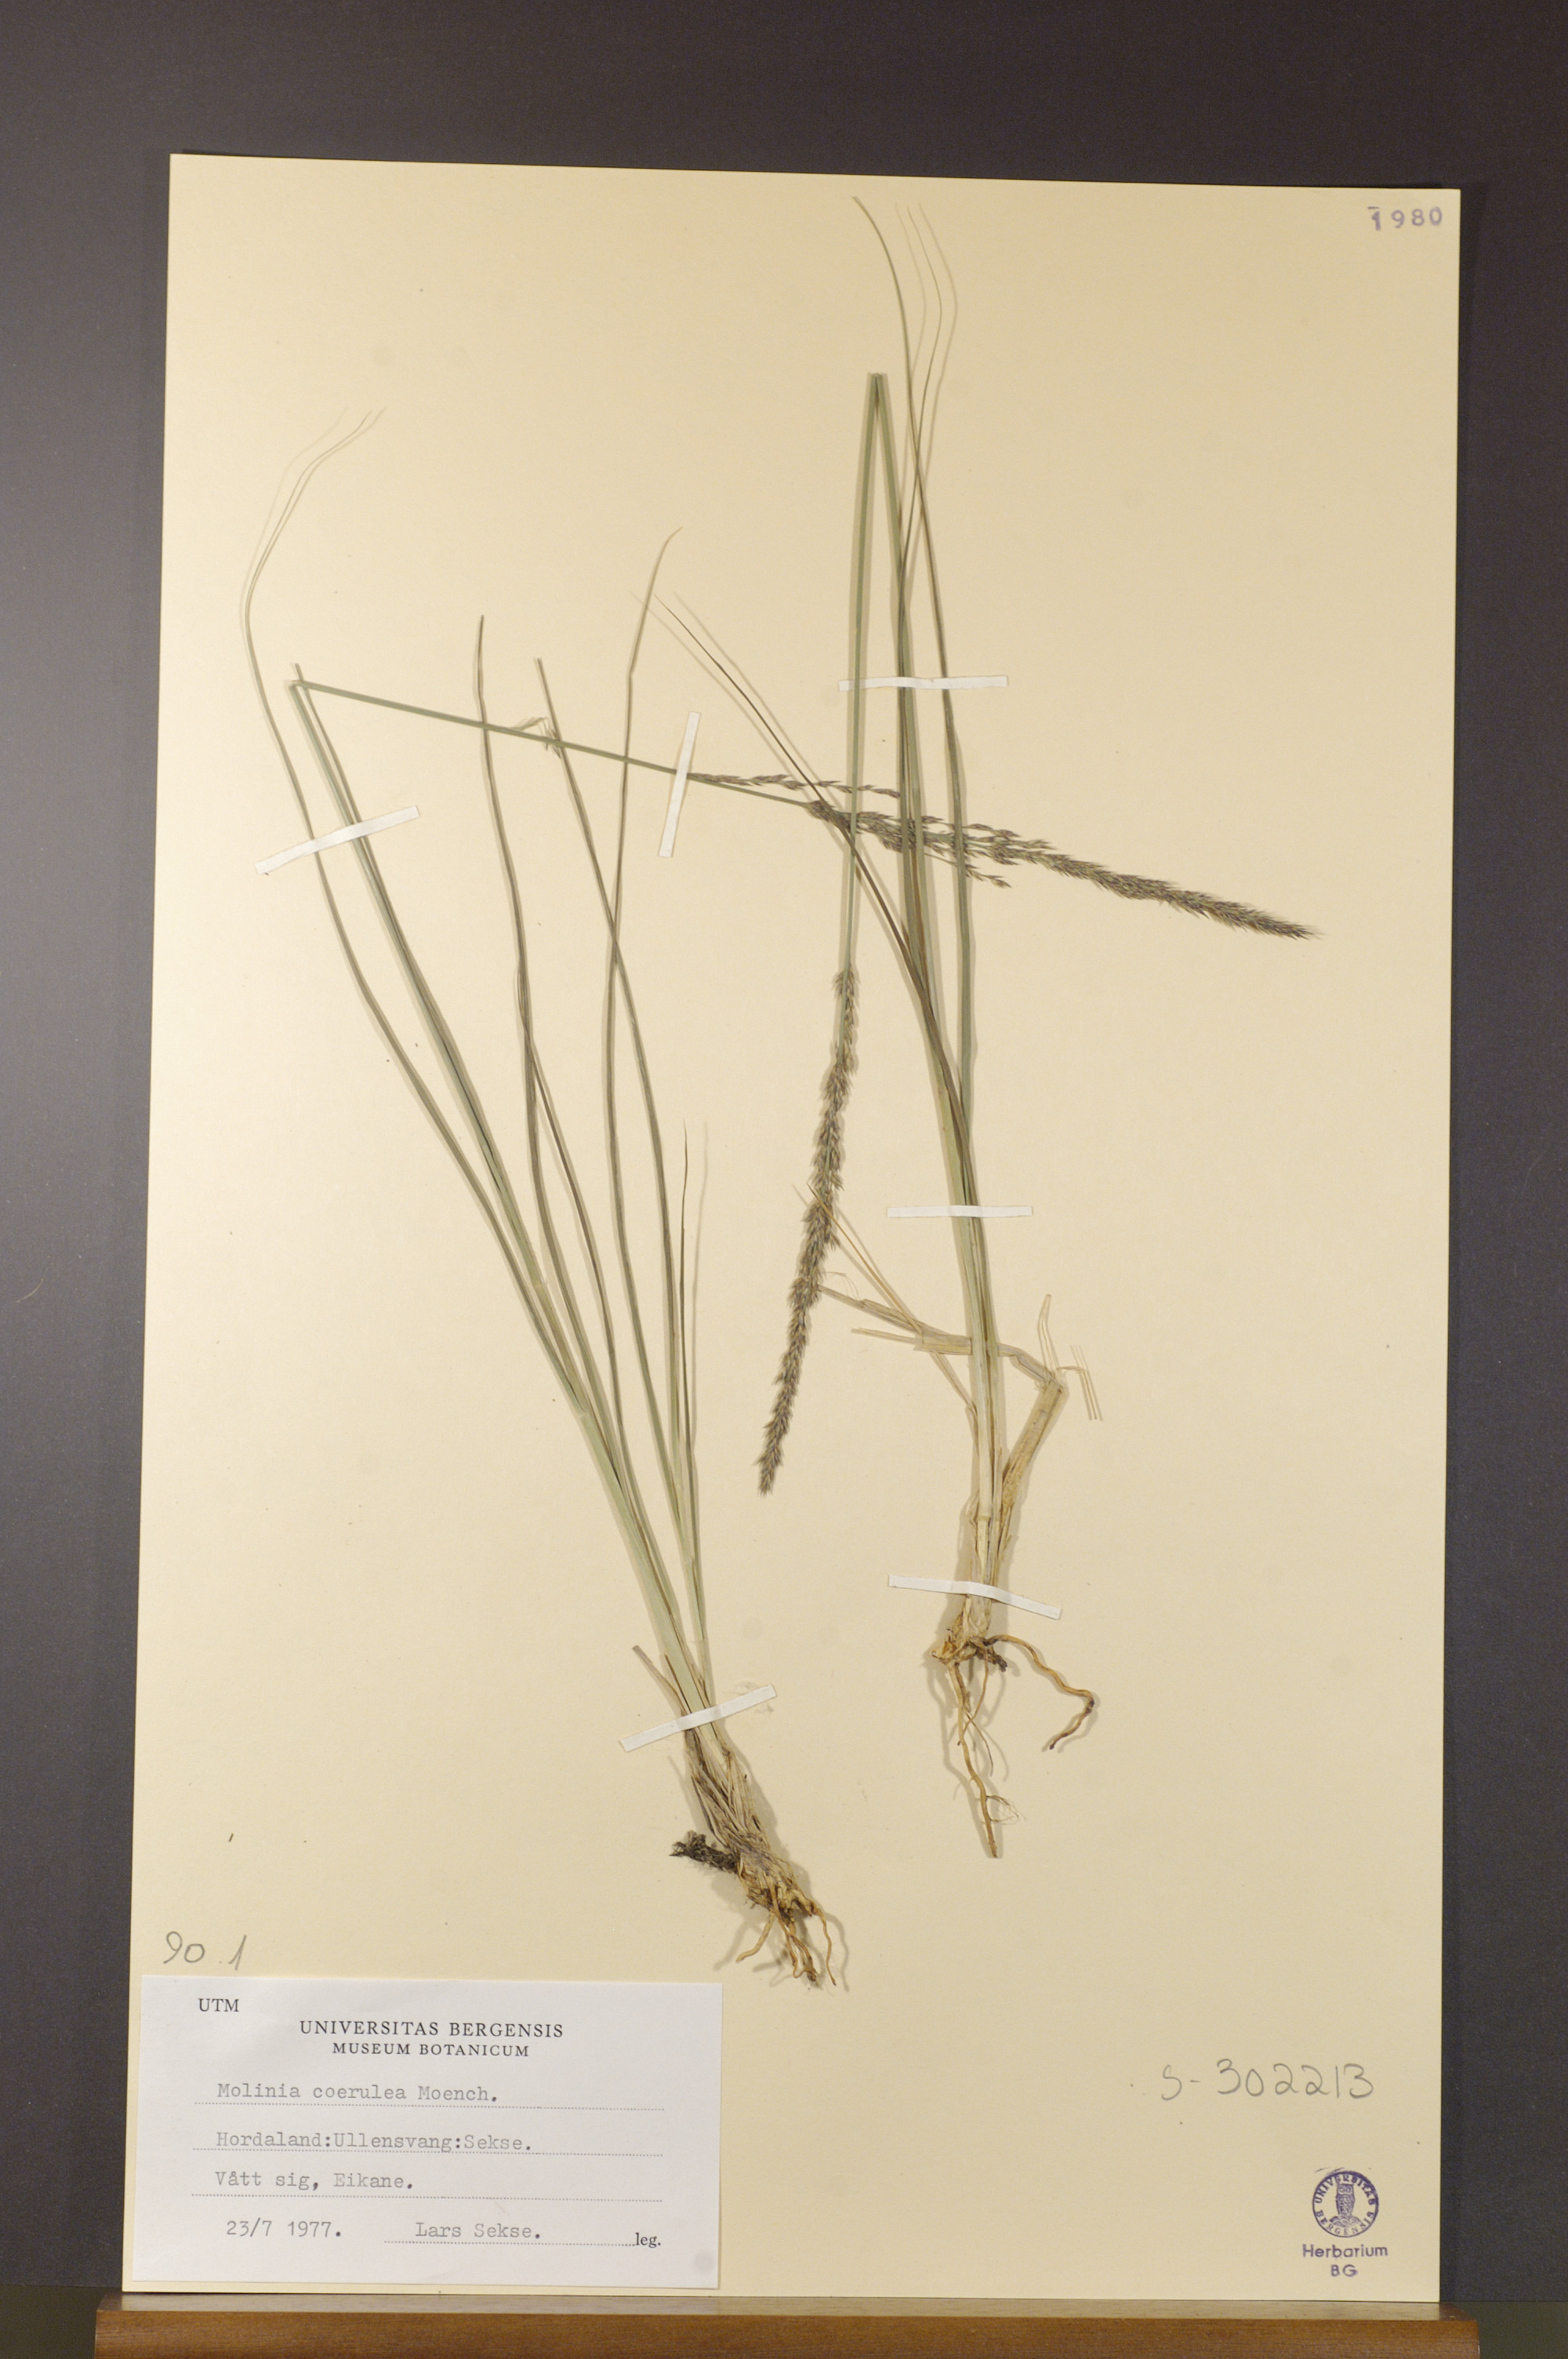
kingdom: Plantae
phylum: Tracheophyta
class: Liliopsida
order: Poales
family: Poaceae
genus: Molinia
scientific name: Molinia caerulea
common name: Purple moor-grass
